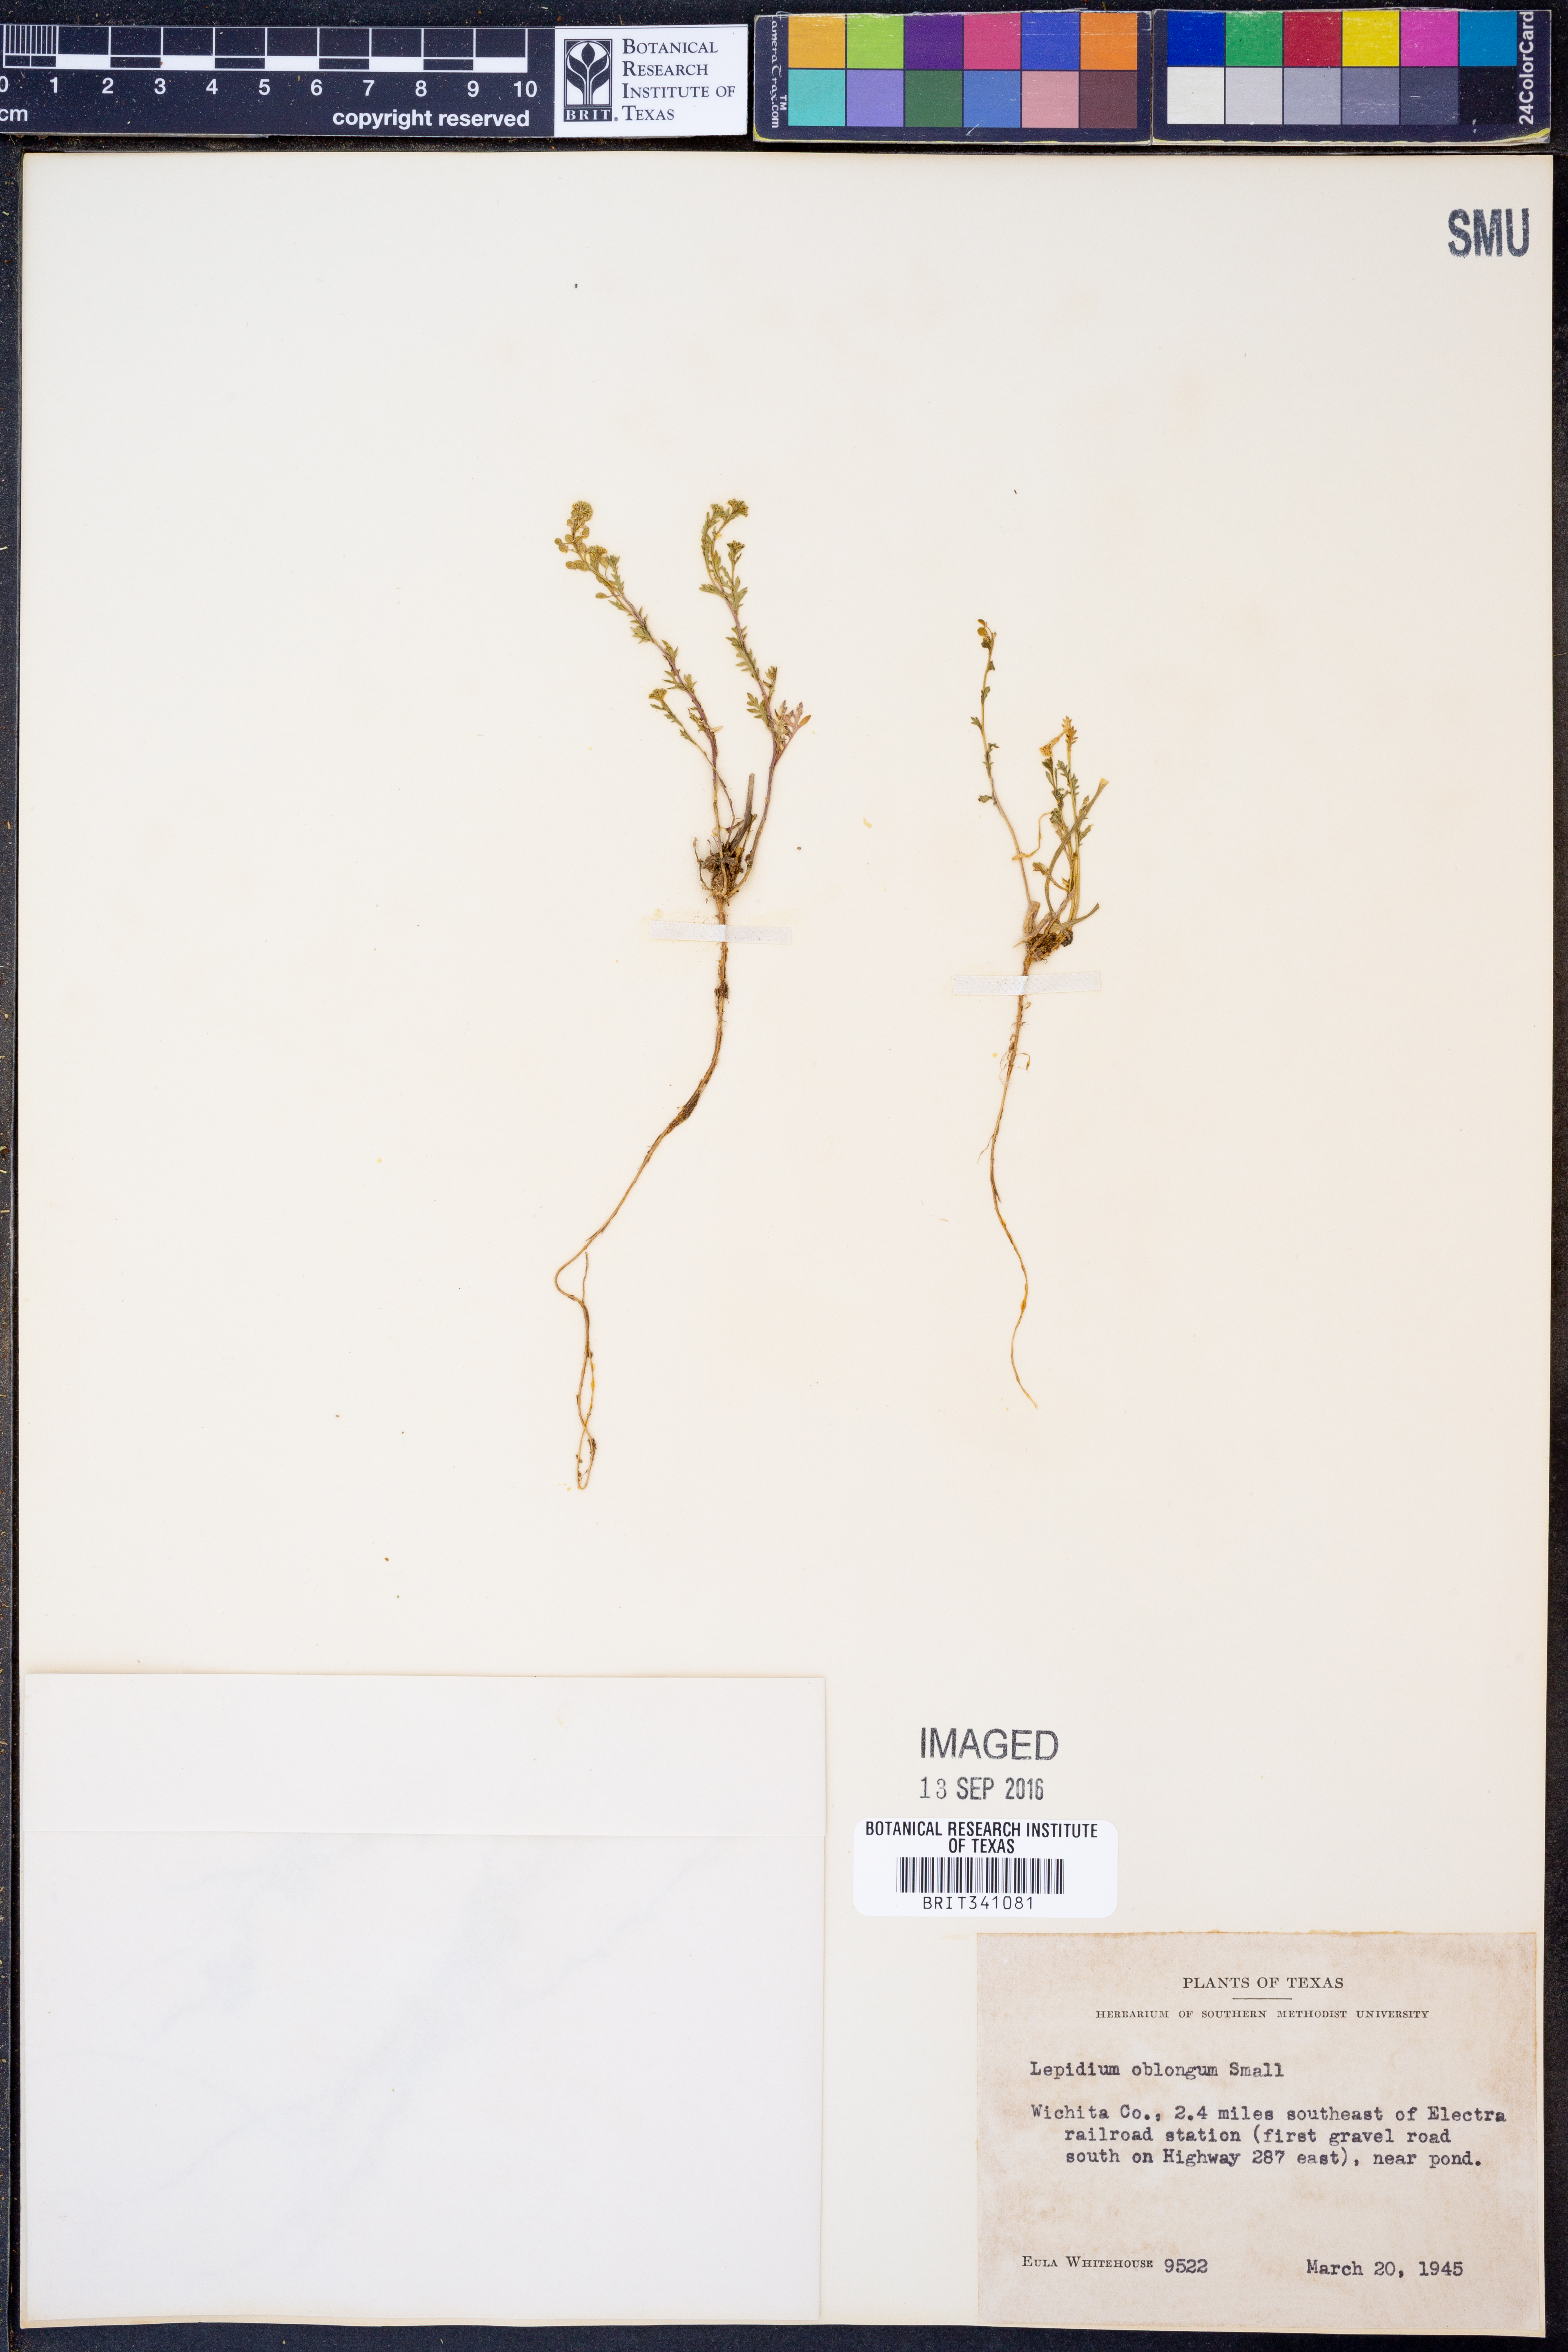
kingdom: Plantae
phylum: Tracheophyta
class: Magnoliopsida
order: Brassicales
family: Brassicaceae
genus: Lepidium
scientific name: Lepidium oblongum
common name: Veiny pepperweed
